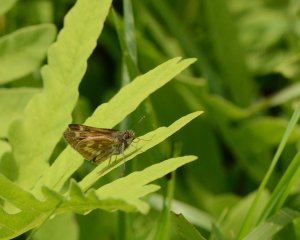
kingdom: Animalia
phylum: Arthropoda
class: Insecta
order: Lepidoptera
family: Hesperiidae
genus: Polites
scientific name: Polites
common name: Long Dash Skipper
